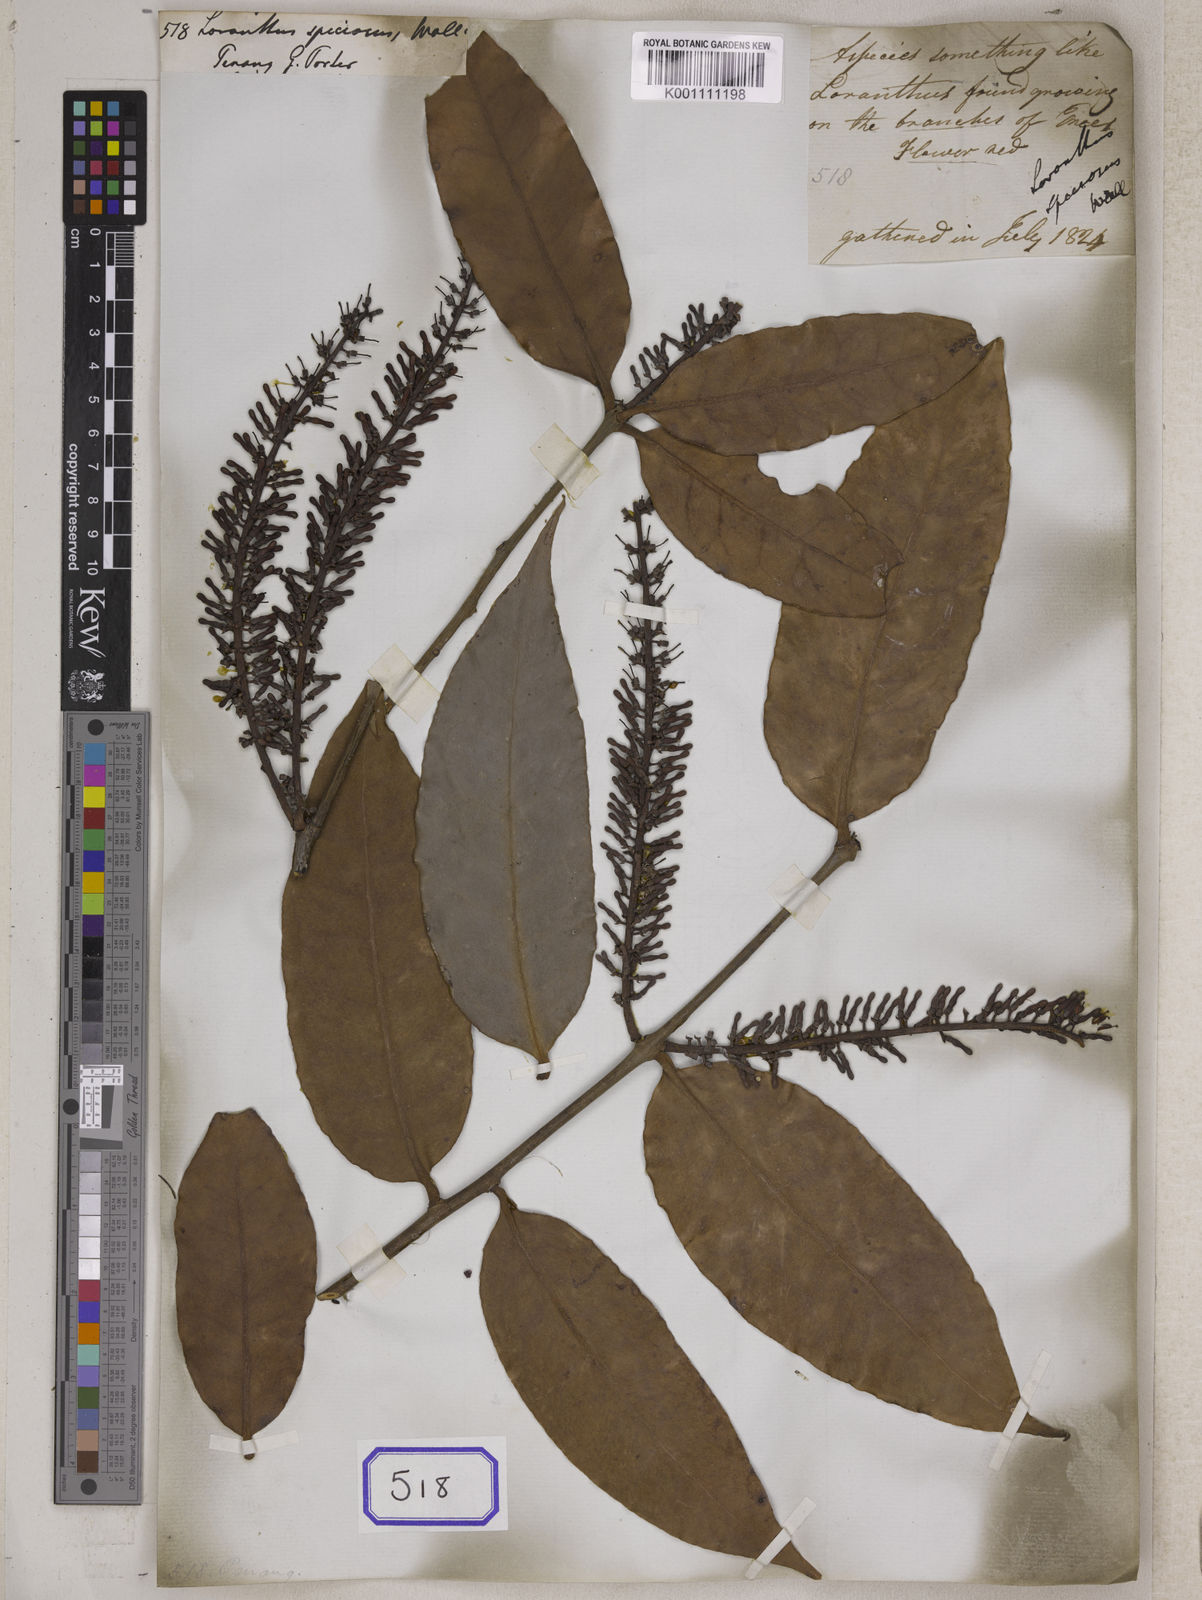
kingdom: Plantae
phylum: Tracheophyta
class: Magnoliopsida
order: Santalales
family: Loranthaceae
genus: Loranthus
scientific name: Loranthus
